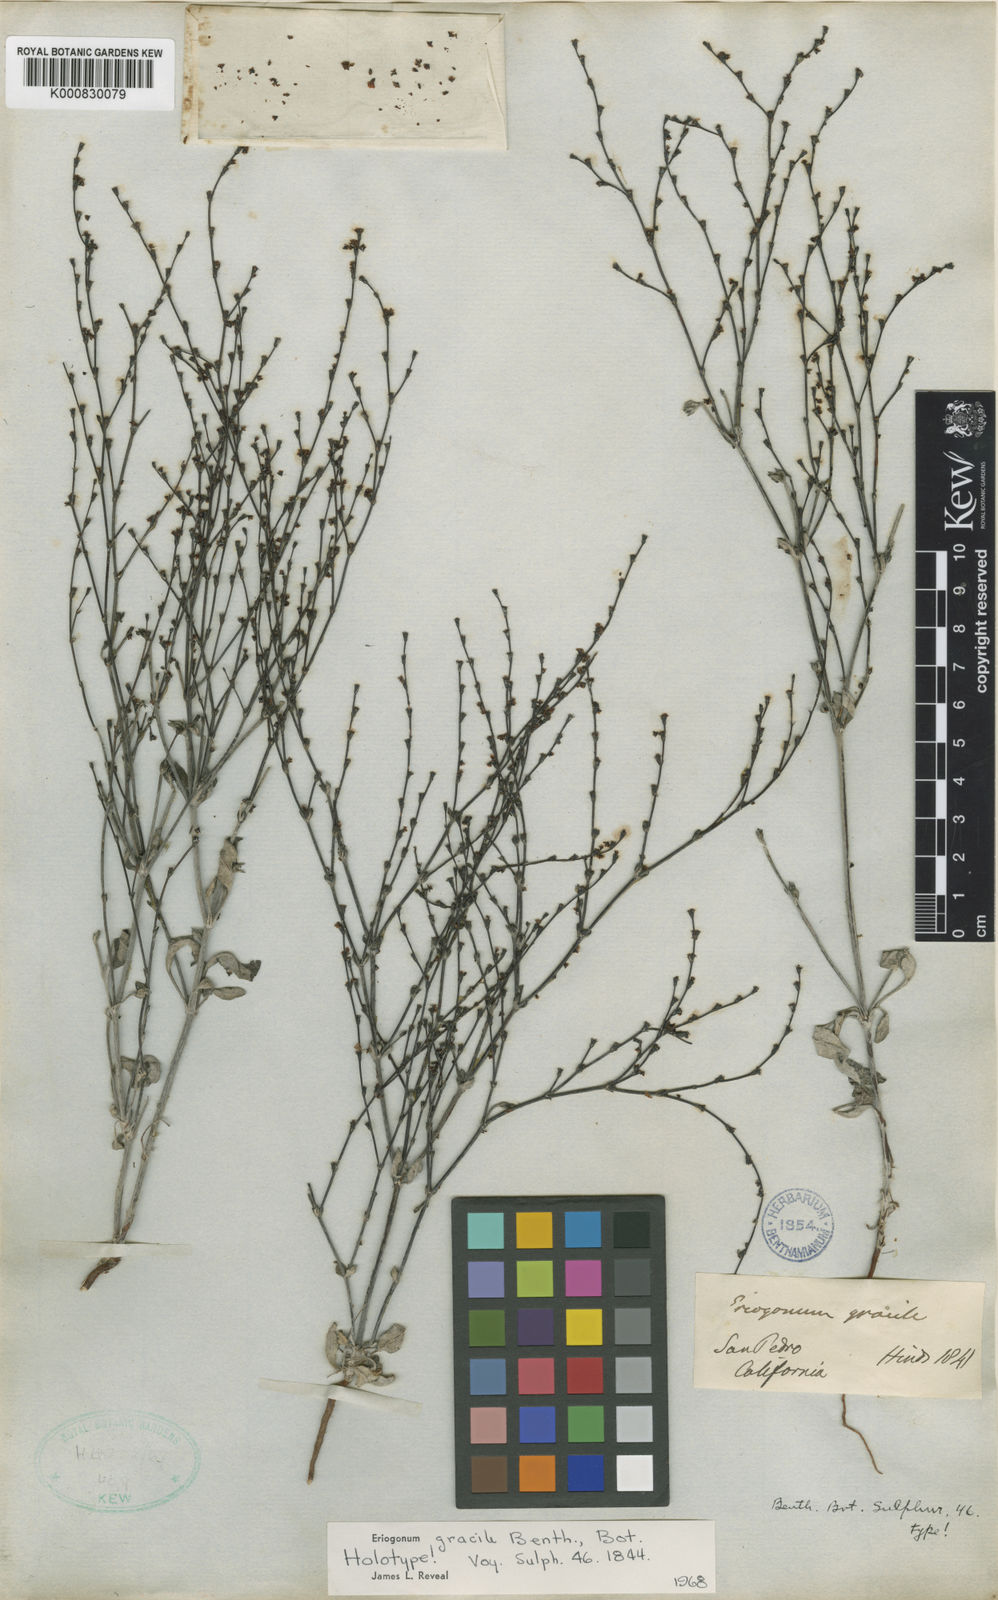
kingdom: Plantae
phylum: Tracheophyta
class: Magnoliopsida
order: Caryophyllales
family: Polygonaceae
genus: Eriogonum
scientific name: Eriogonum gracile
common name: Slender woolly buckwheat
